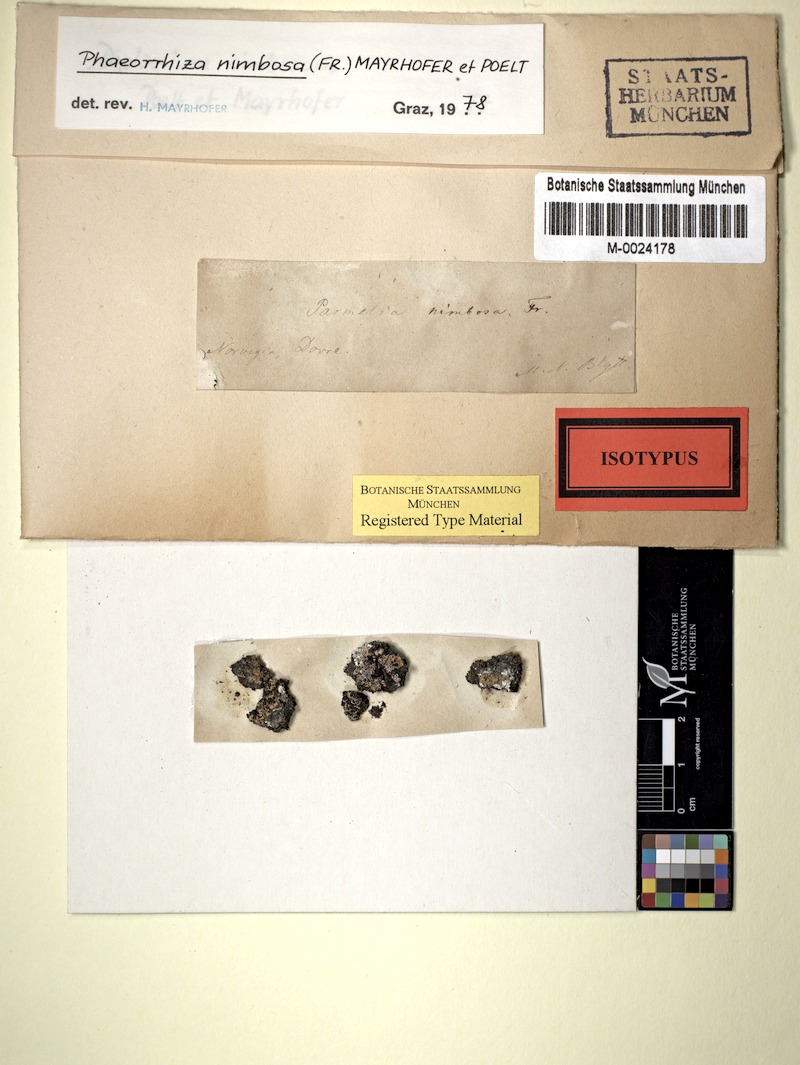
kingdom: Fungi
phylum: Ascomycota
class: Lecanoromycetes
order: Caliciales
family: Physciaceae
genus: Phaeorrhiza
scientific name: Phaeorrhiza nimbosa
